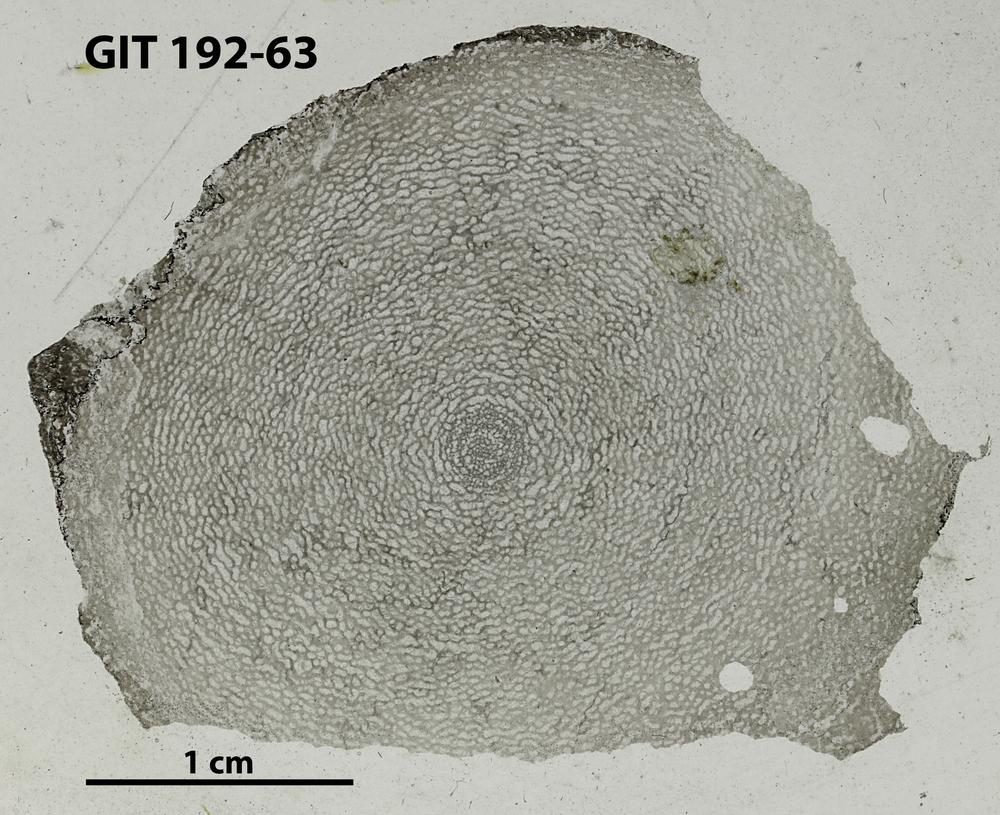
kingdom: Animalia
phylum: Porifera
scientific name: Porifera
